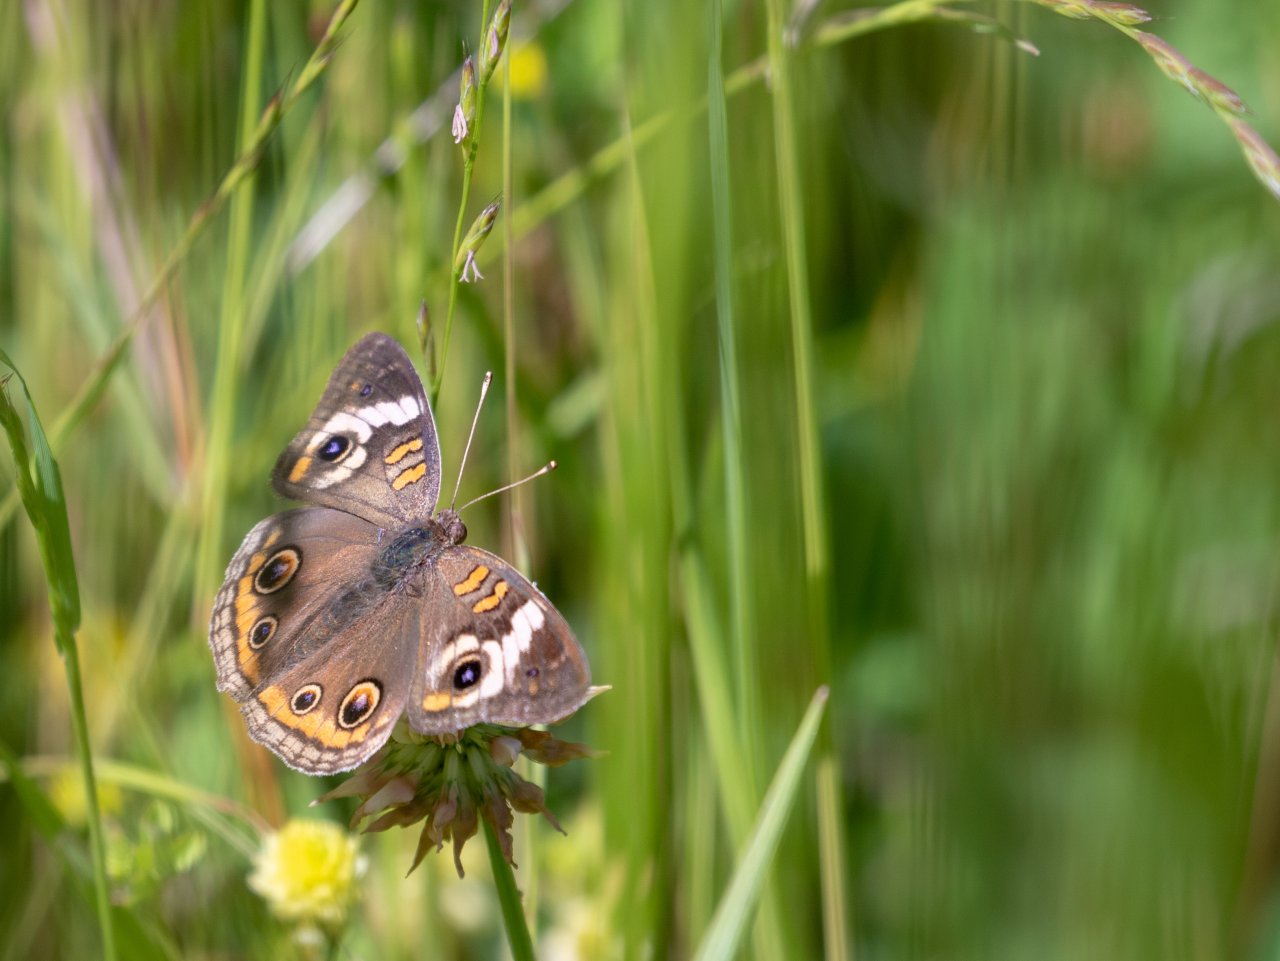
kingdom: Animalia
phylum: Arthropoda
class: Insecta
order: Lepidoptera
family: Nymphalidae
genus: Junonia
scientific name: Junonia coenia
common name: Common Buckeye
